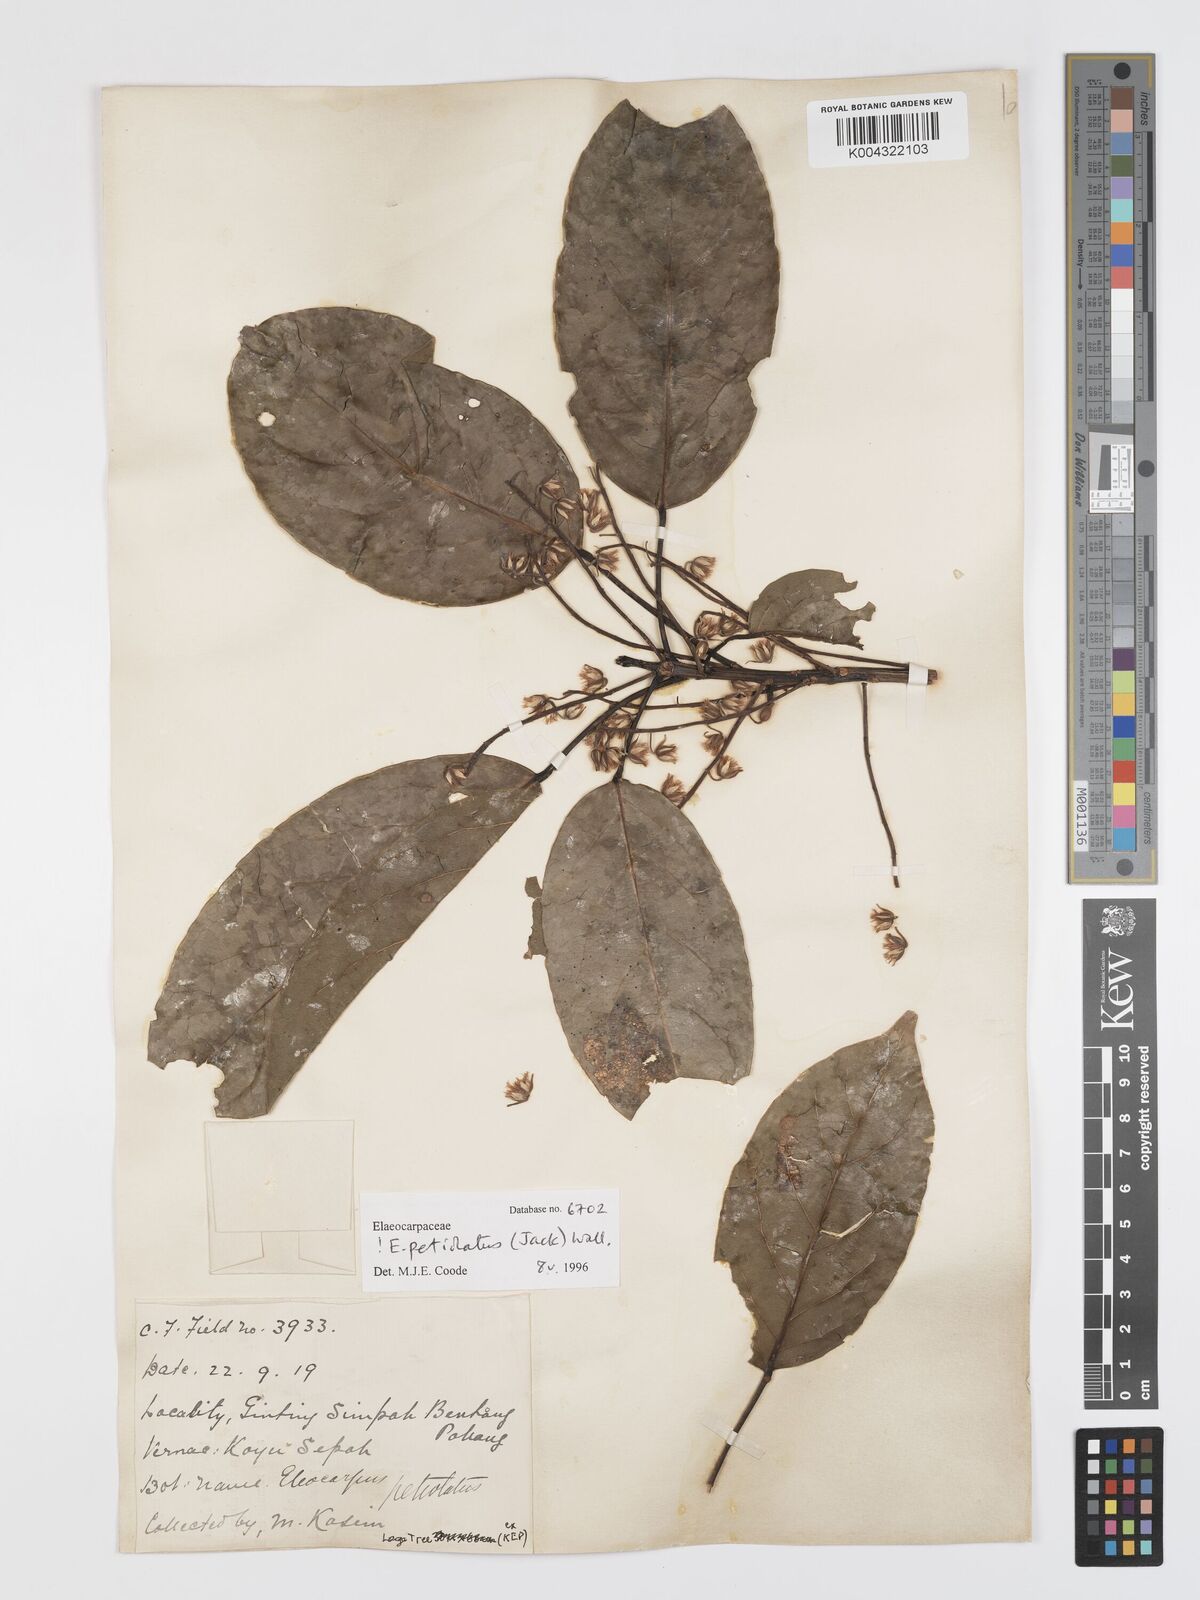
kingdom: Plantae
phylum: Tracheophyta
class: Magnoliopsida
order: Oxalidales
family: Elaeocarpaceae
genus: Elaeocarpus
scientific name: Elaeocarpus petiolatus
